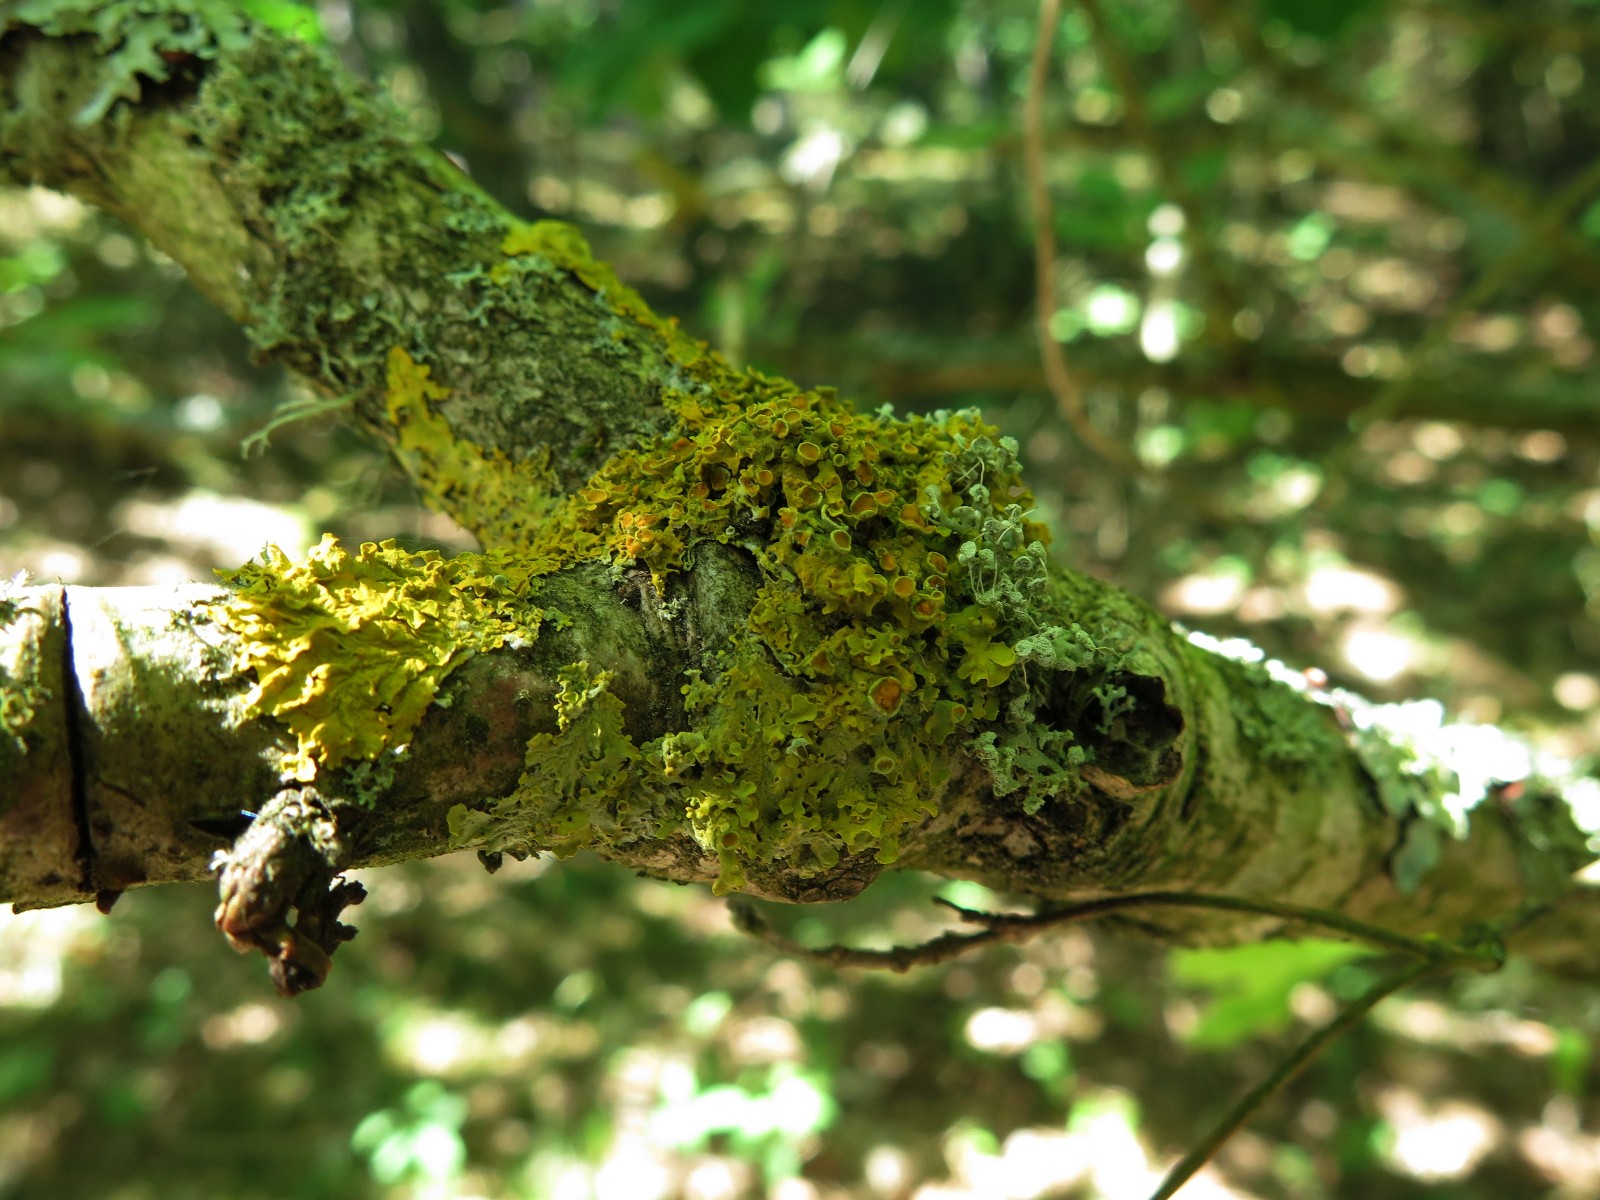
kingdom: Fungi
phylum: Ascomycota
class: Lecanoromycetes
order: Teloschistales
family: Teloschistaceae
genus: Xanthoria
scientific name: Xanthoria parietina
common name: almindelig væggelav
